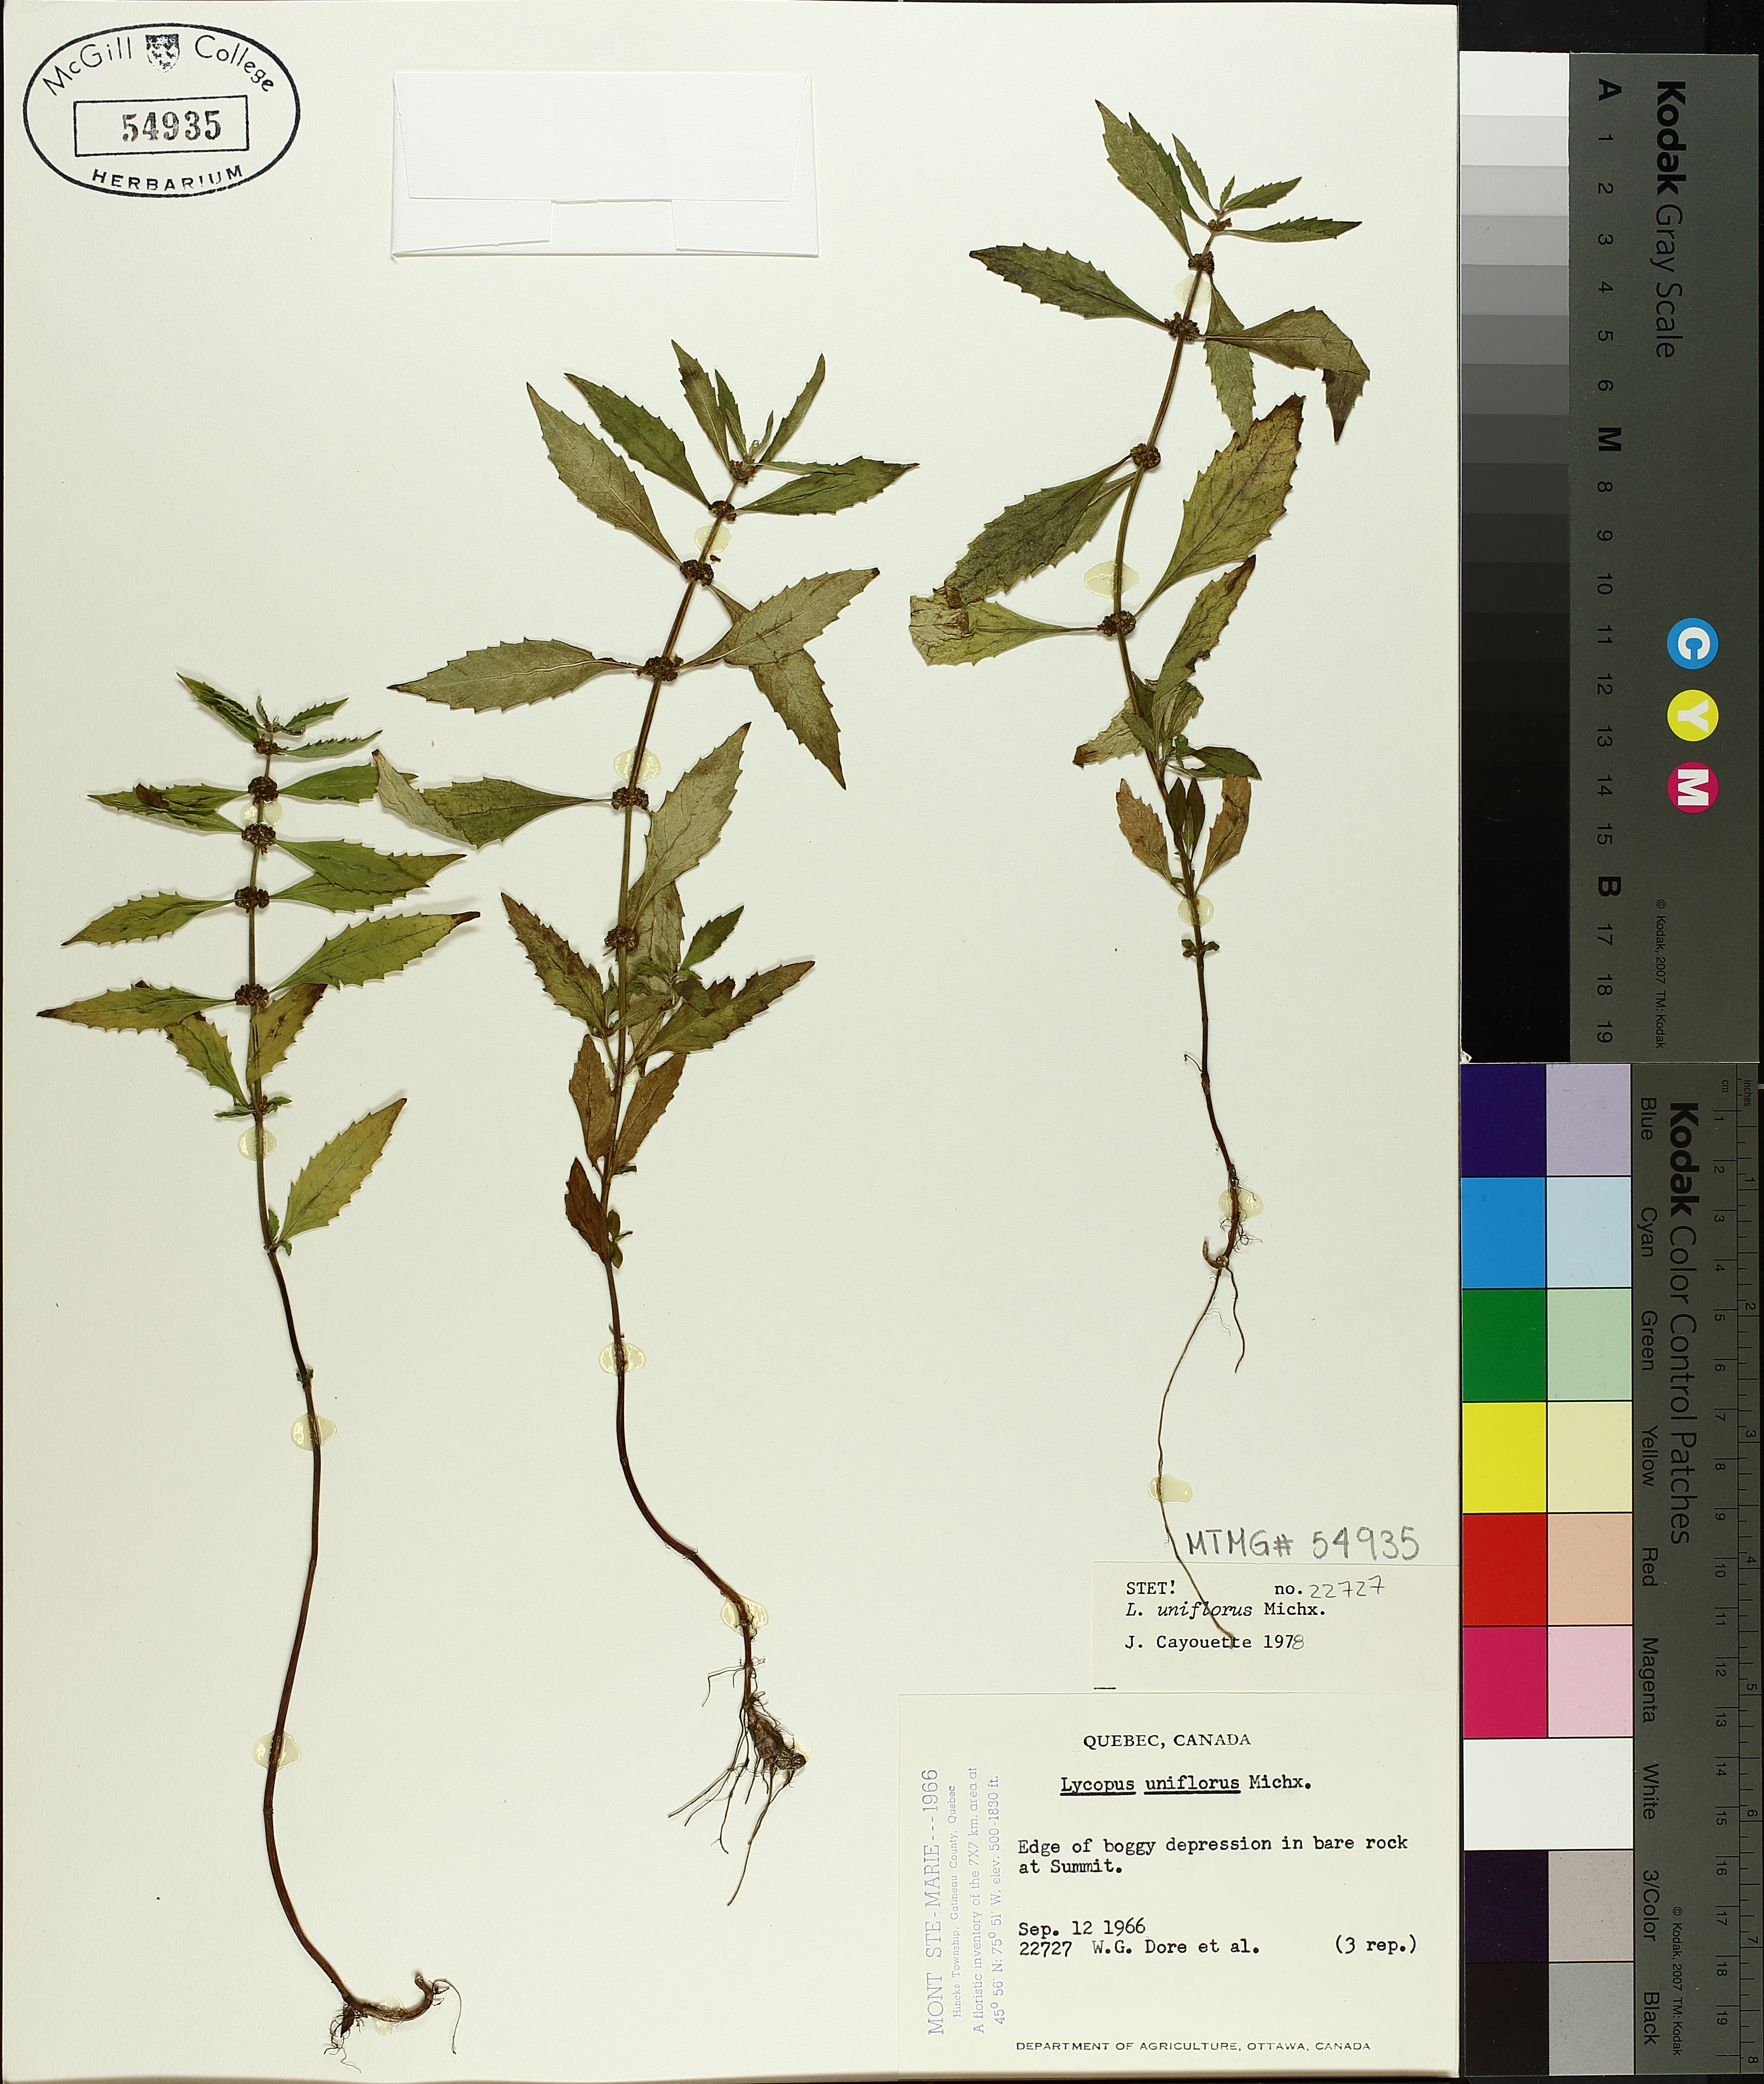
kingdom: Plantae
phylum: Tracheophyta
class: Magnoliopsida
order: Lamiales
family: Lamiaceae
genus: Lycopus
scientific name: Lycopus uniflorus
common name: Northern bugleweed
